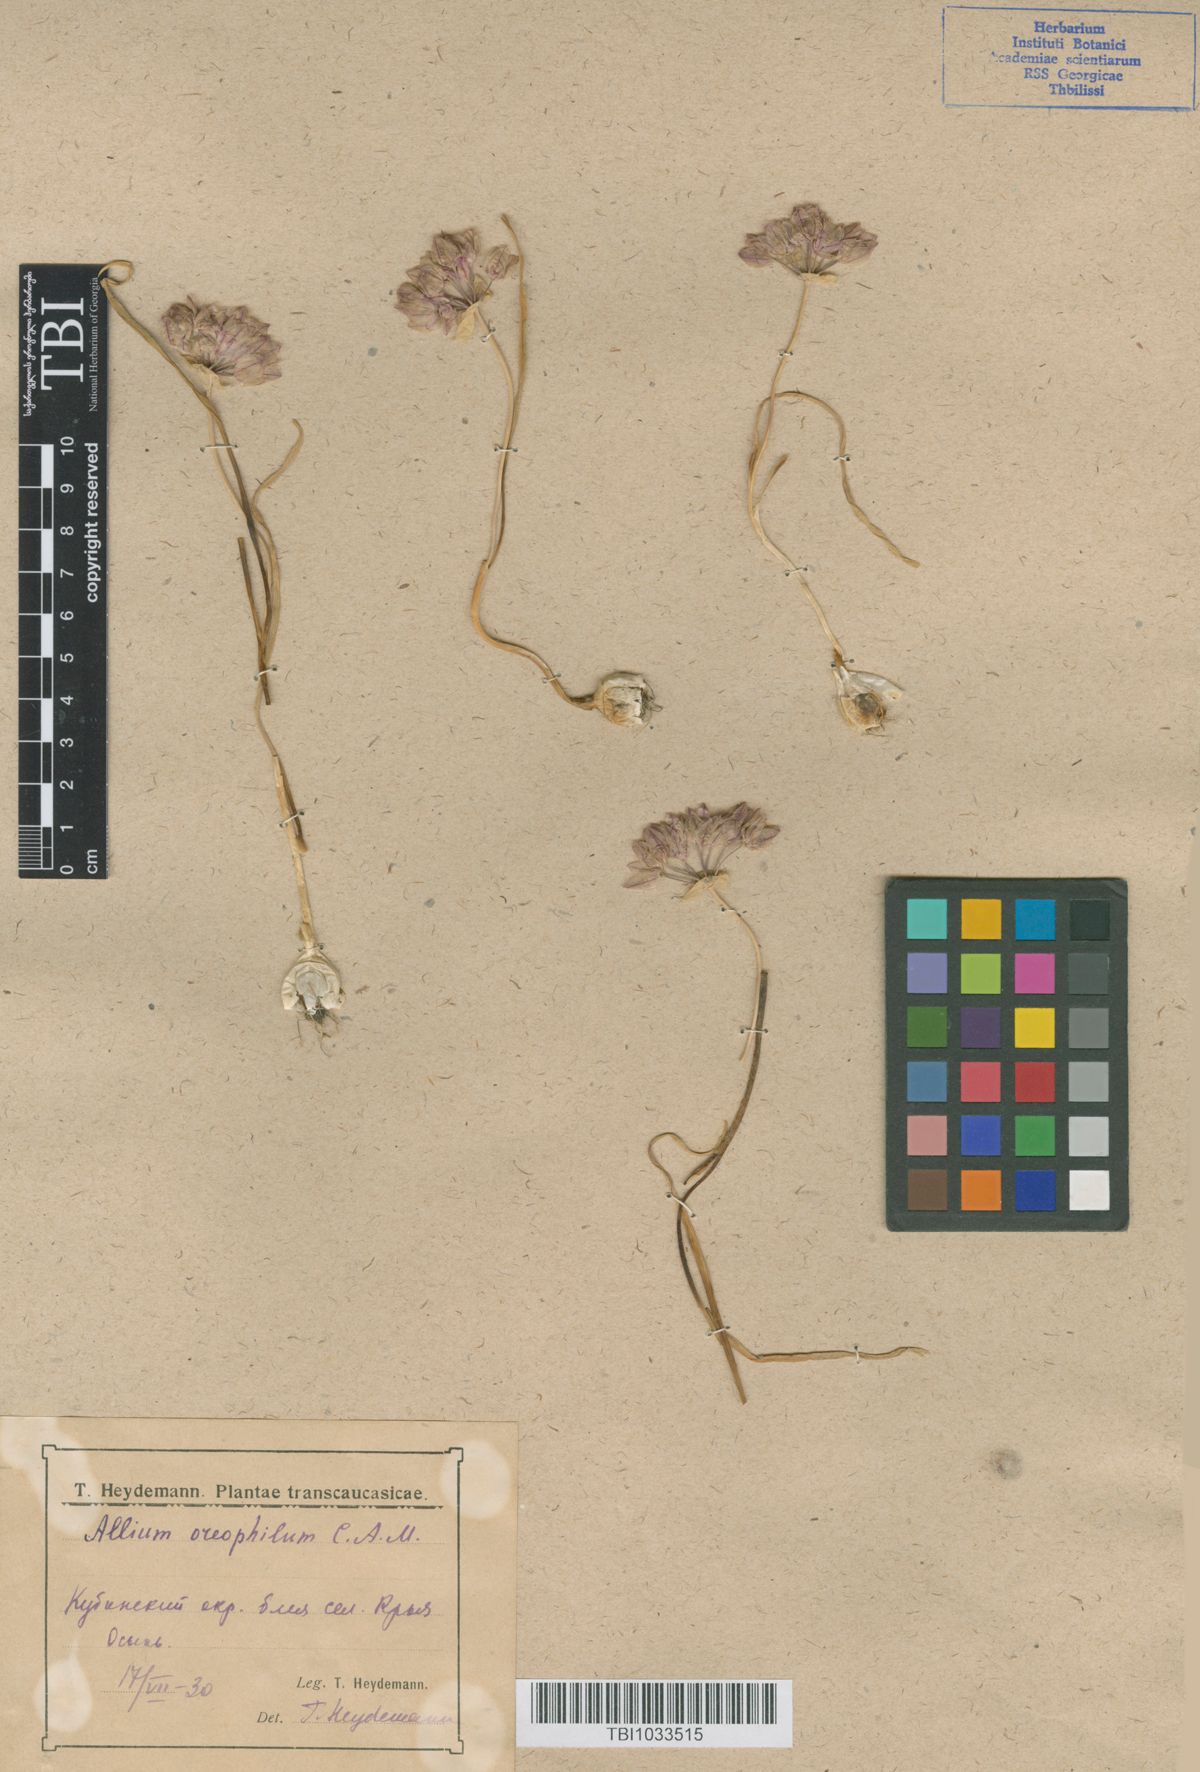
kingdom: Plantae
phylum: Tracheophyta
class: Liliopsida
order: Asparagales
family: Amaryllidaceae
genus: Allium
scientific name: Allium oreophilum
